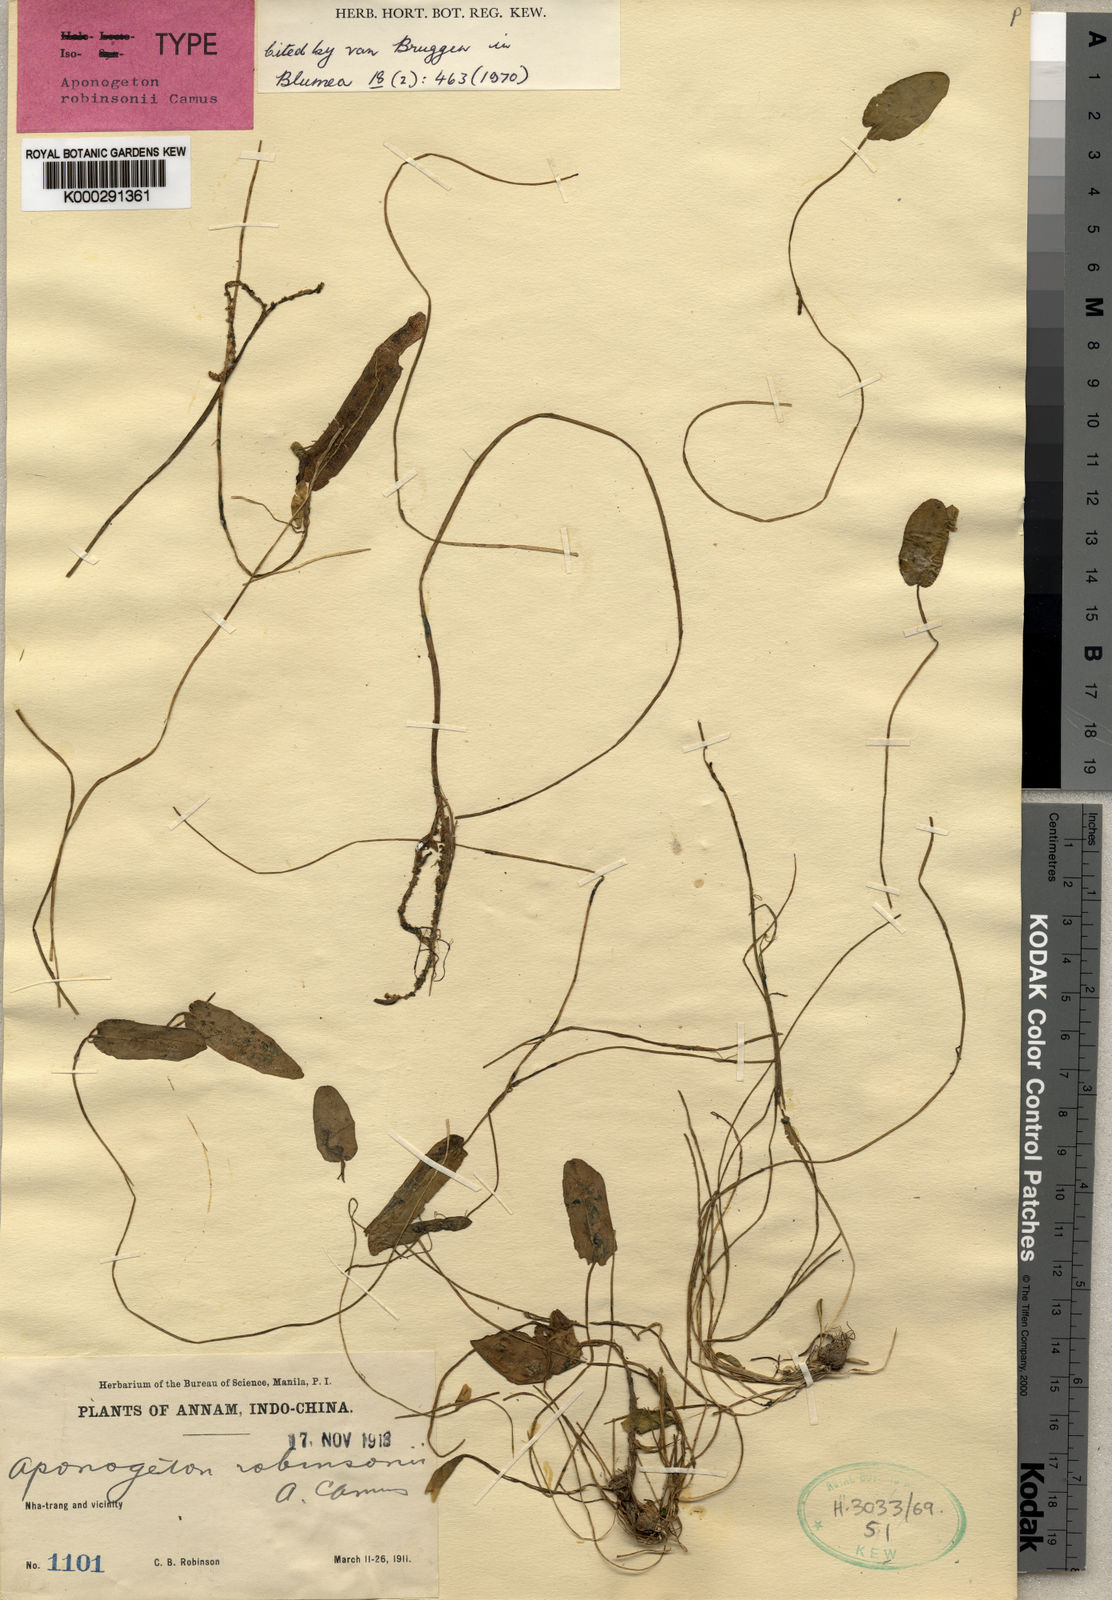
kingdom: Plantae
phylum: Tracheophyta
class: Liliopsida
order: Alismatales
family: Aponogetonaceae
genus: Aponogeton
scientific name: Aponogeton robinsonii
